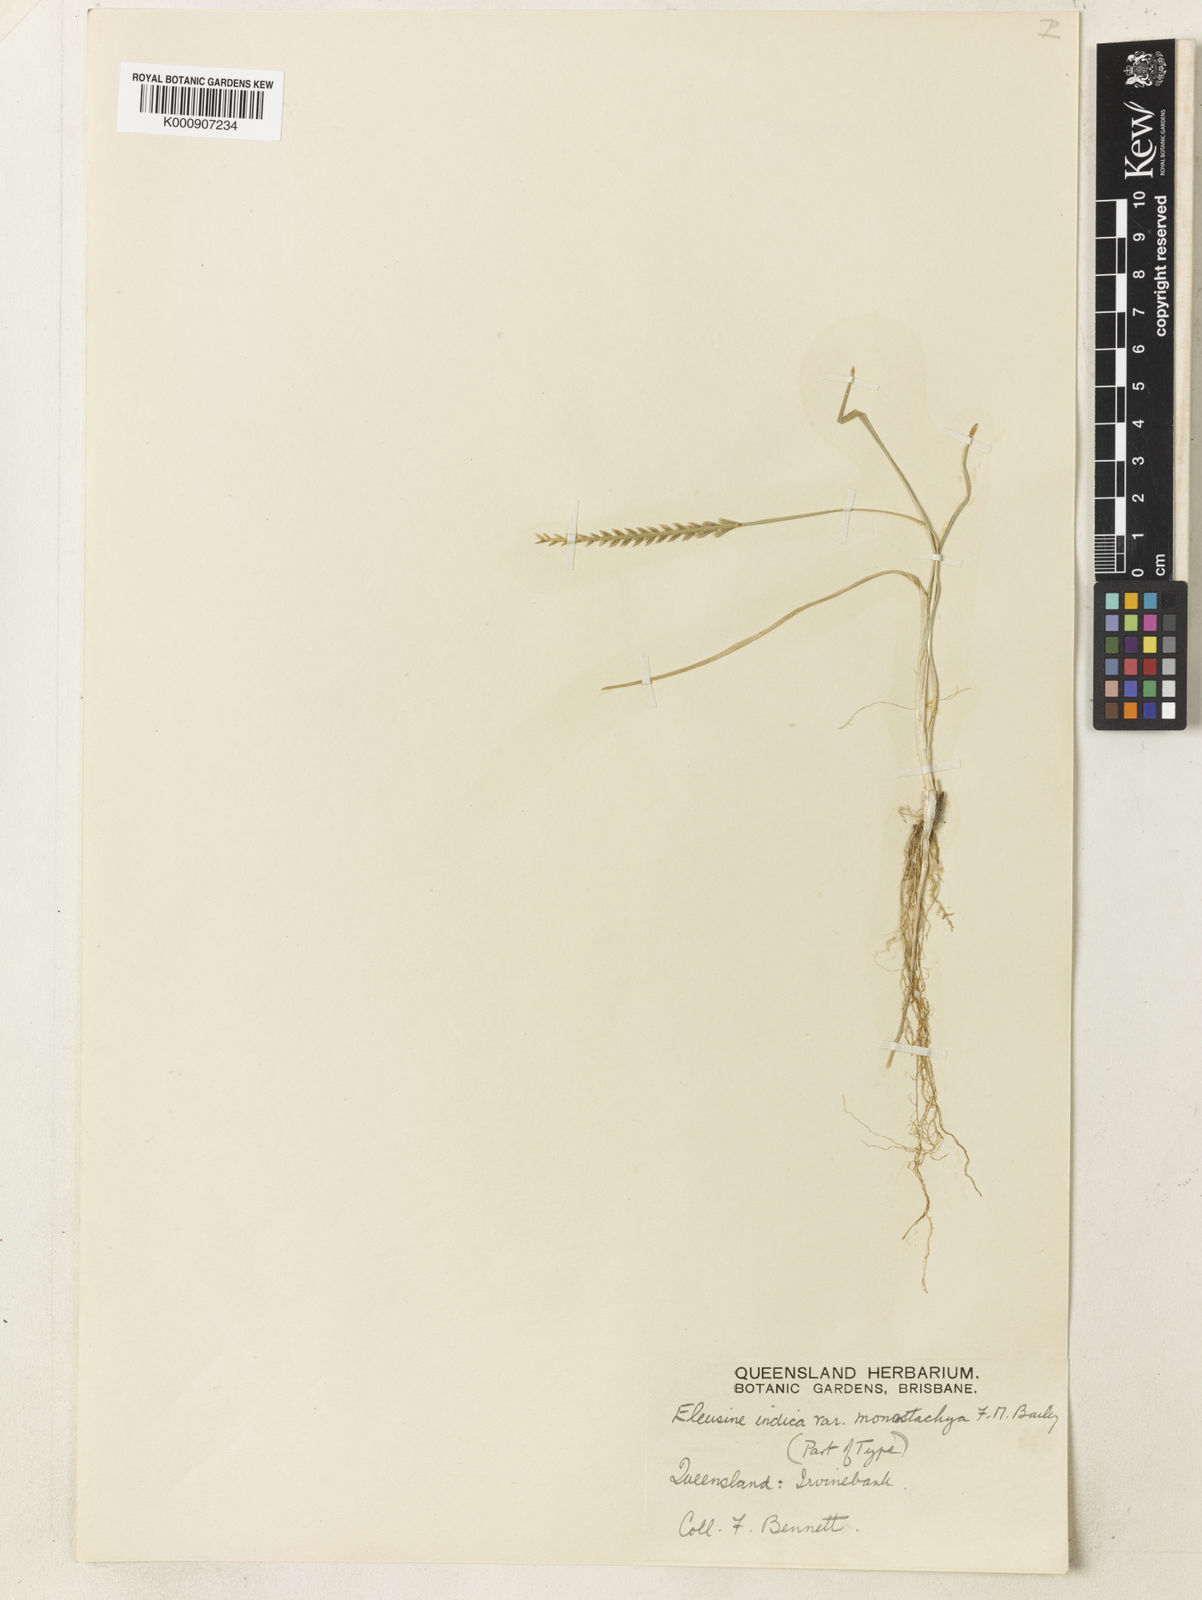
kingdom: Plantae
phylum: Tracheophyta
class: Liliopsida
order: Poales
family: Poaceae
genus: Eleusine
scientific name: Eleusine indica
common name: Yard-grass
